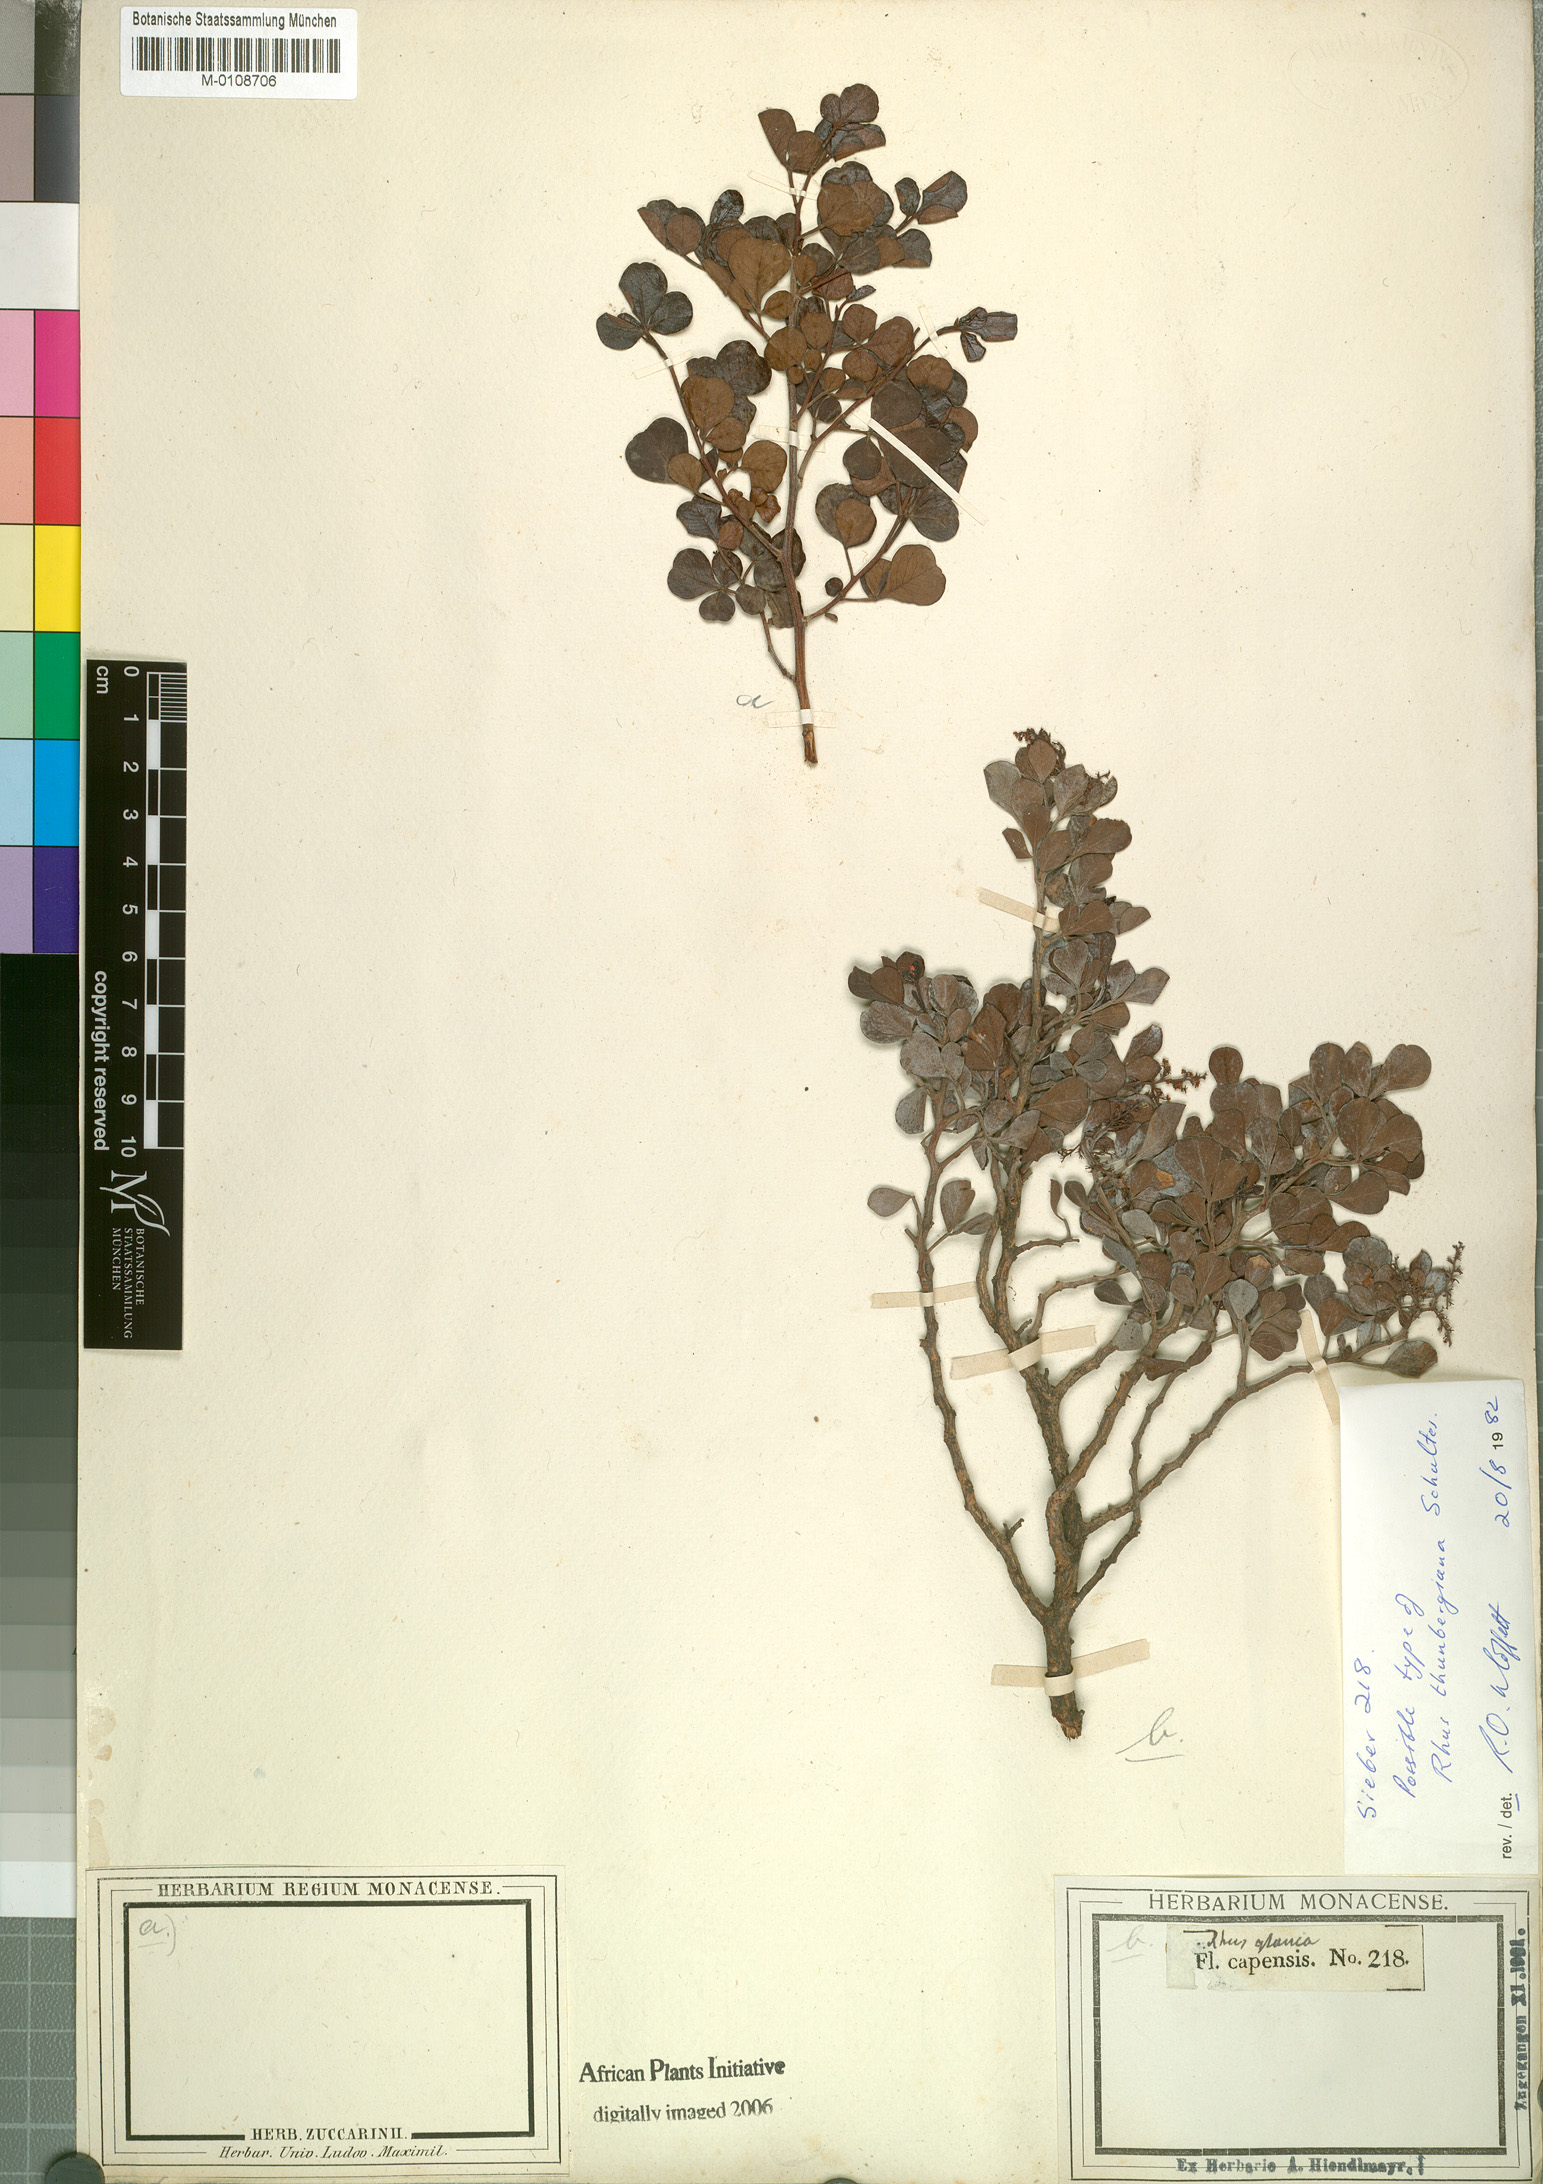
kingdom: Plantae
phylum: Tracheophyta
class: Magnoliopsida
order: Sapindales
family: Anacardiaceae
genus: Searsia
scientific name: Searsia glauca
